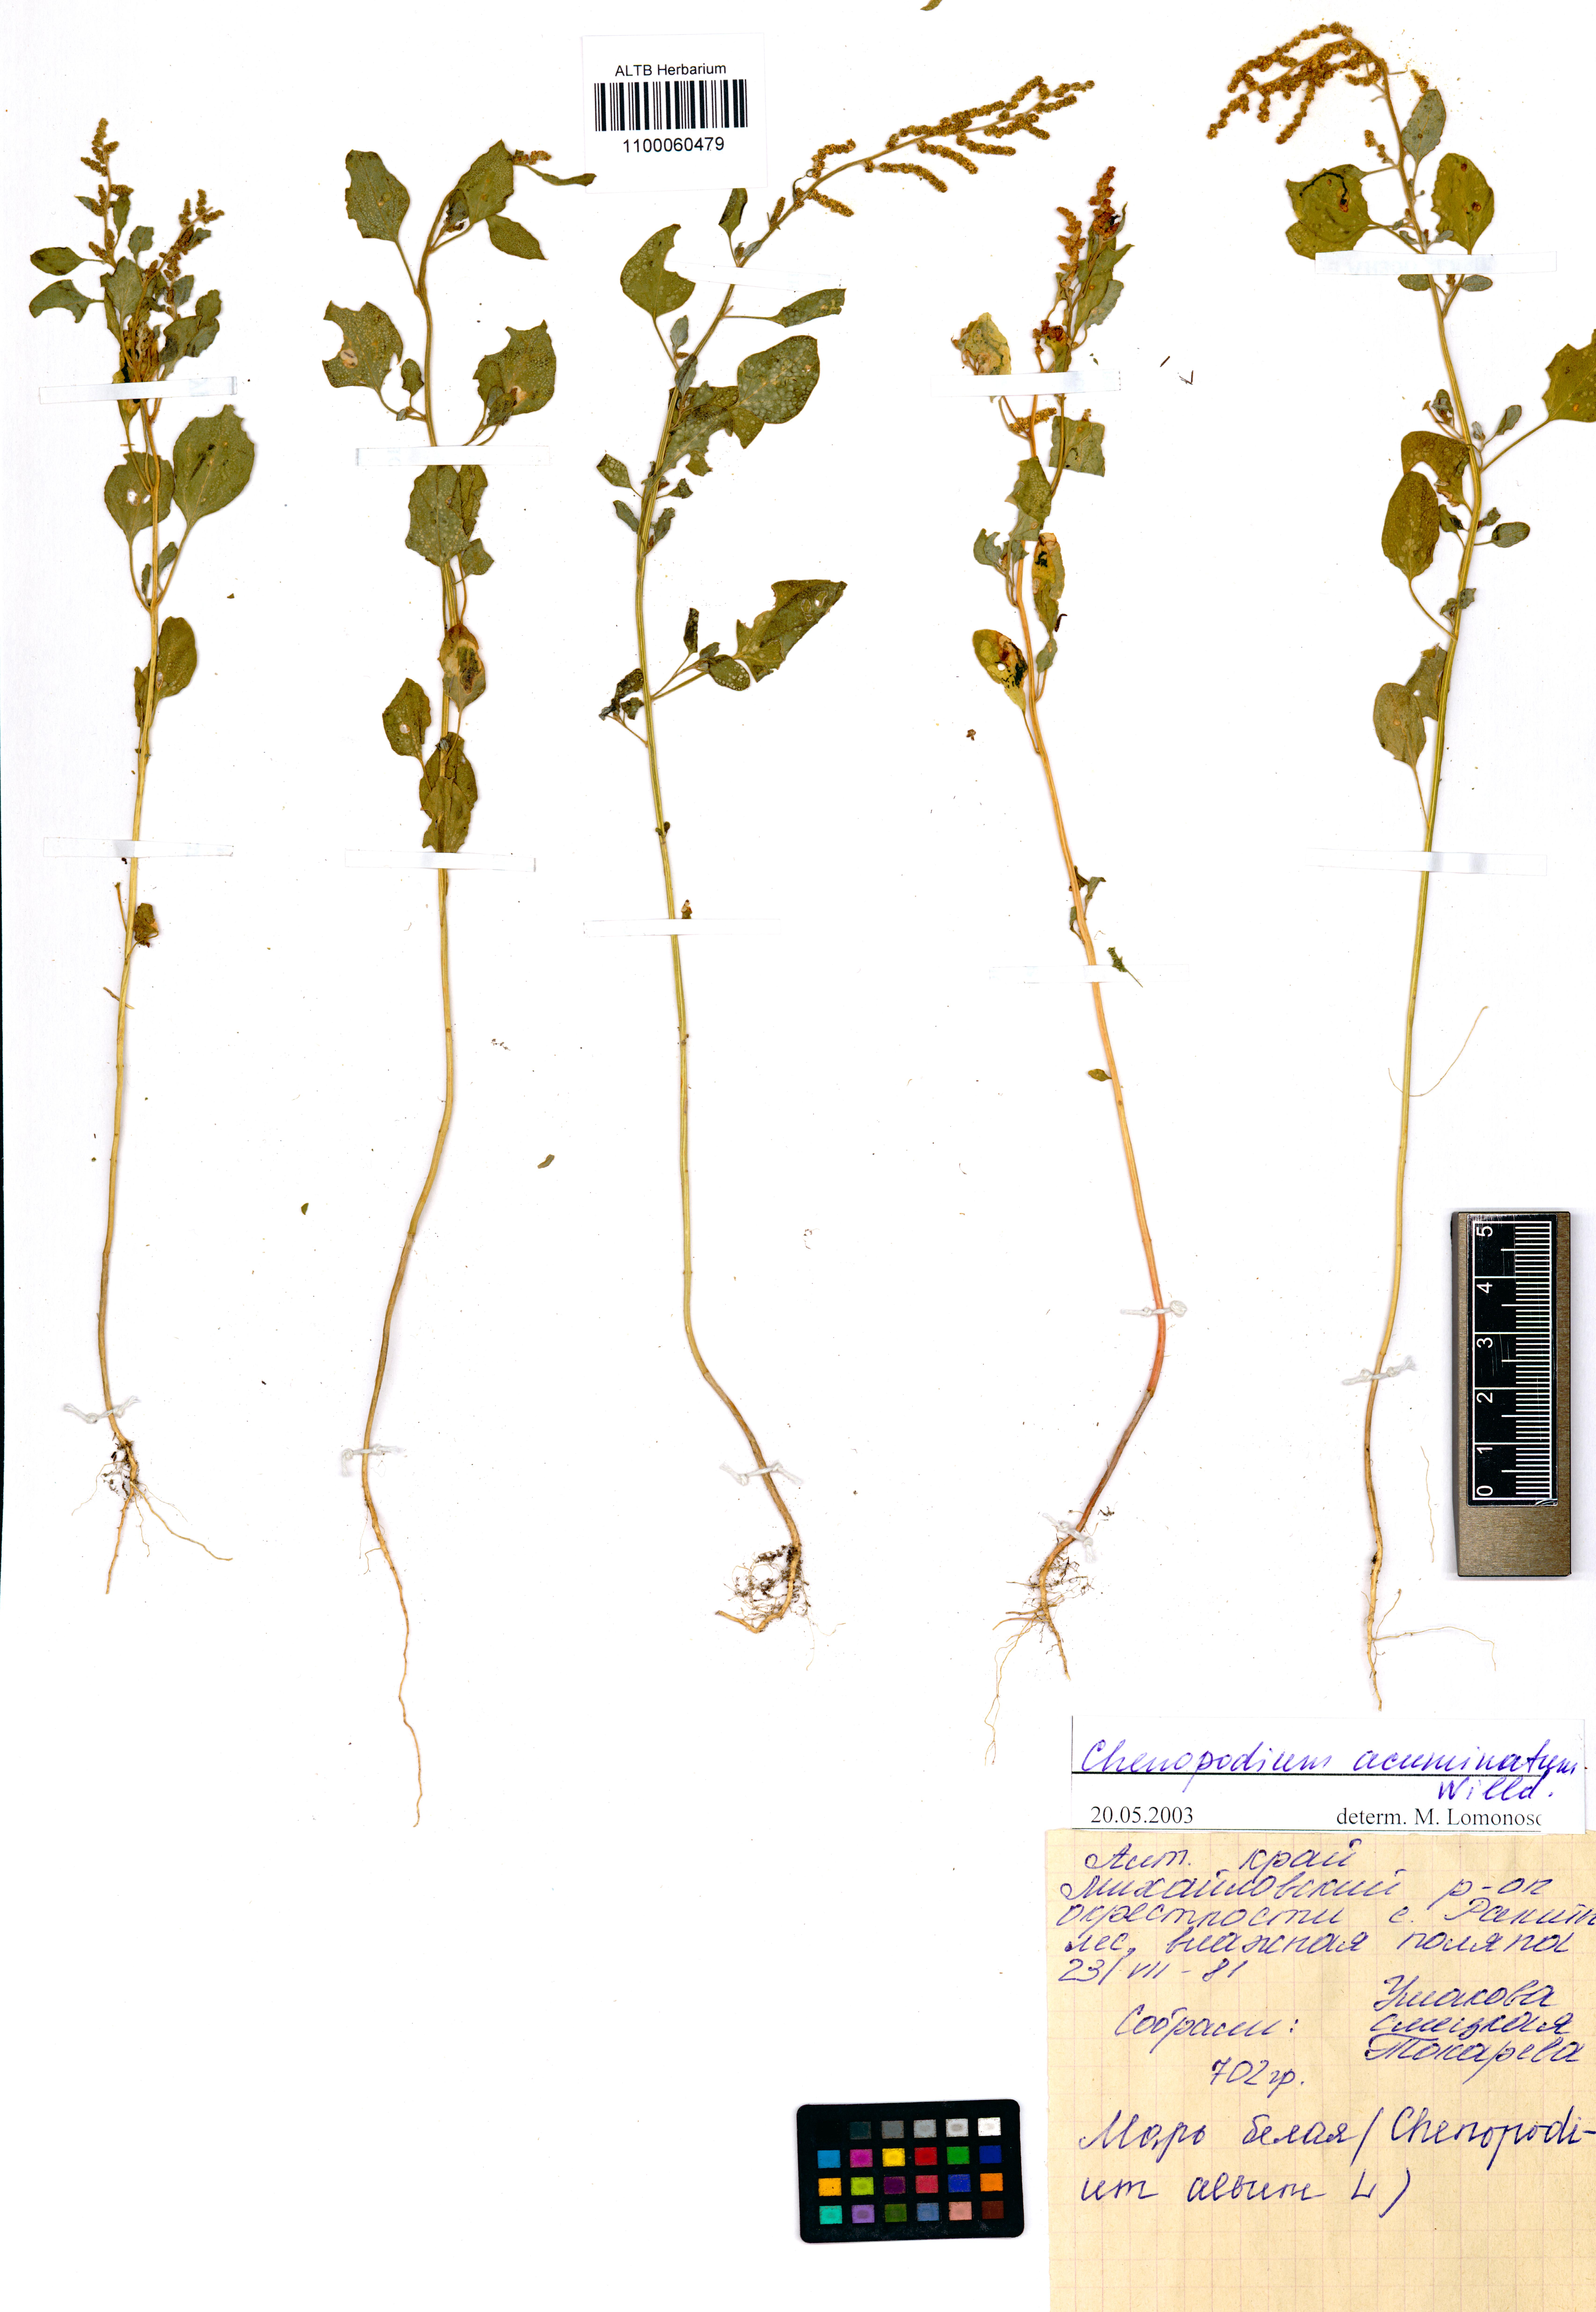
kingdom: Plantae
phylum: Tracheophyta
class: Magnoliopsida
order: Caryophyllales
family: Amaranthaceae
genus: Chenopodium
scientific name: Chenopodium acuminatum
